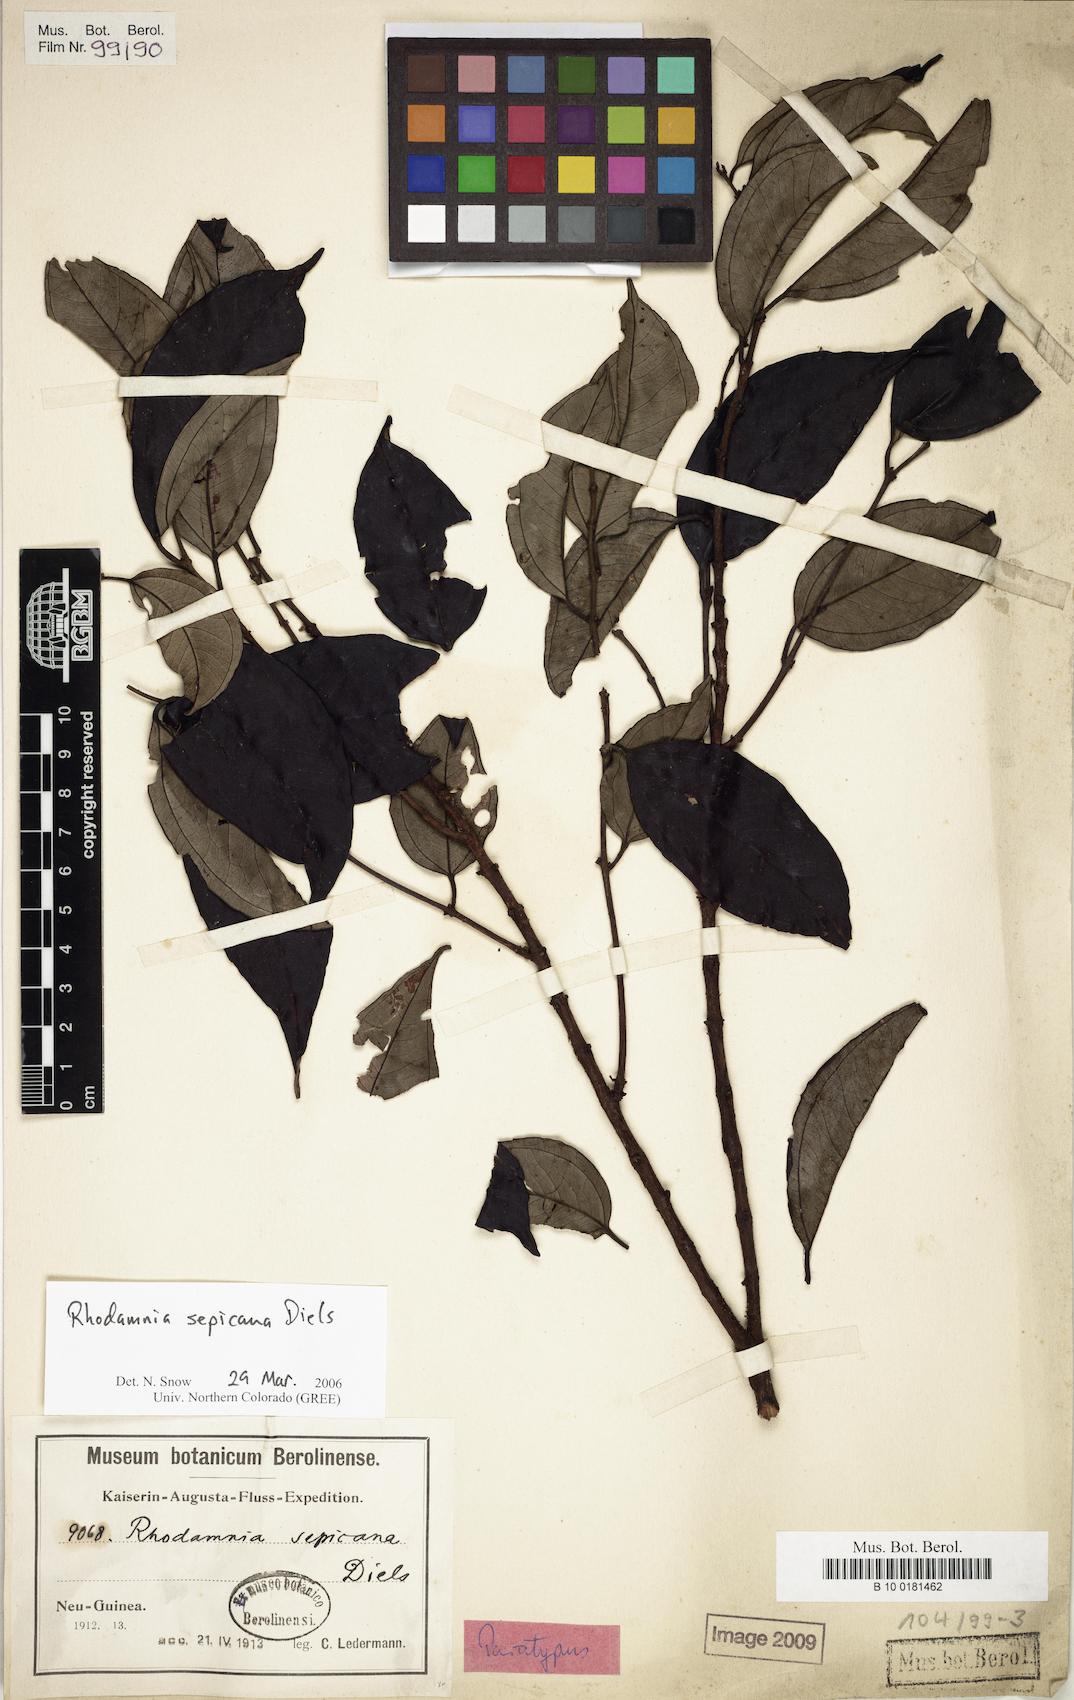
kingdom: Plantae
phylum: Tracheophyta
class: Magnoliopsida
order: Myrtales
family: Myrtaceae
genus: Rhodamnia
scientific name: Rhodamnia sepicana
